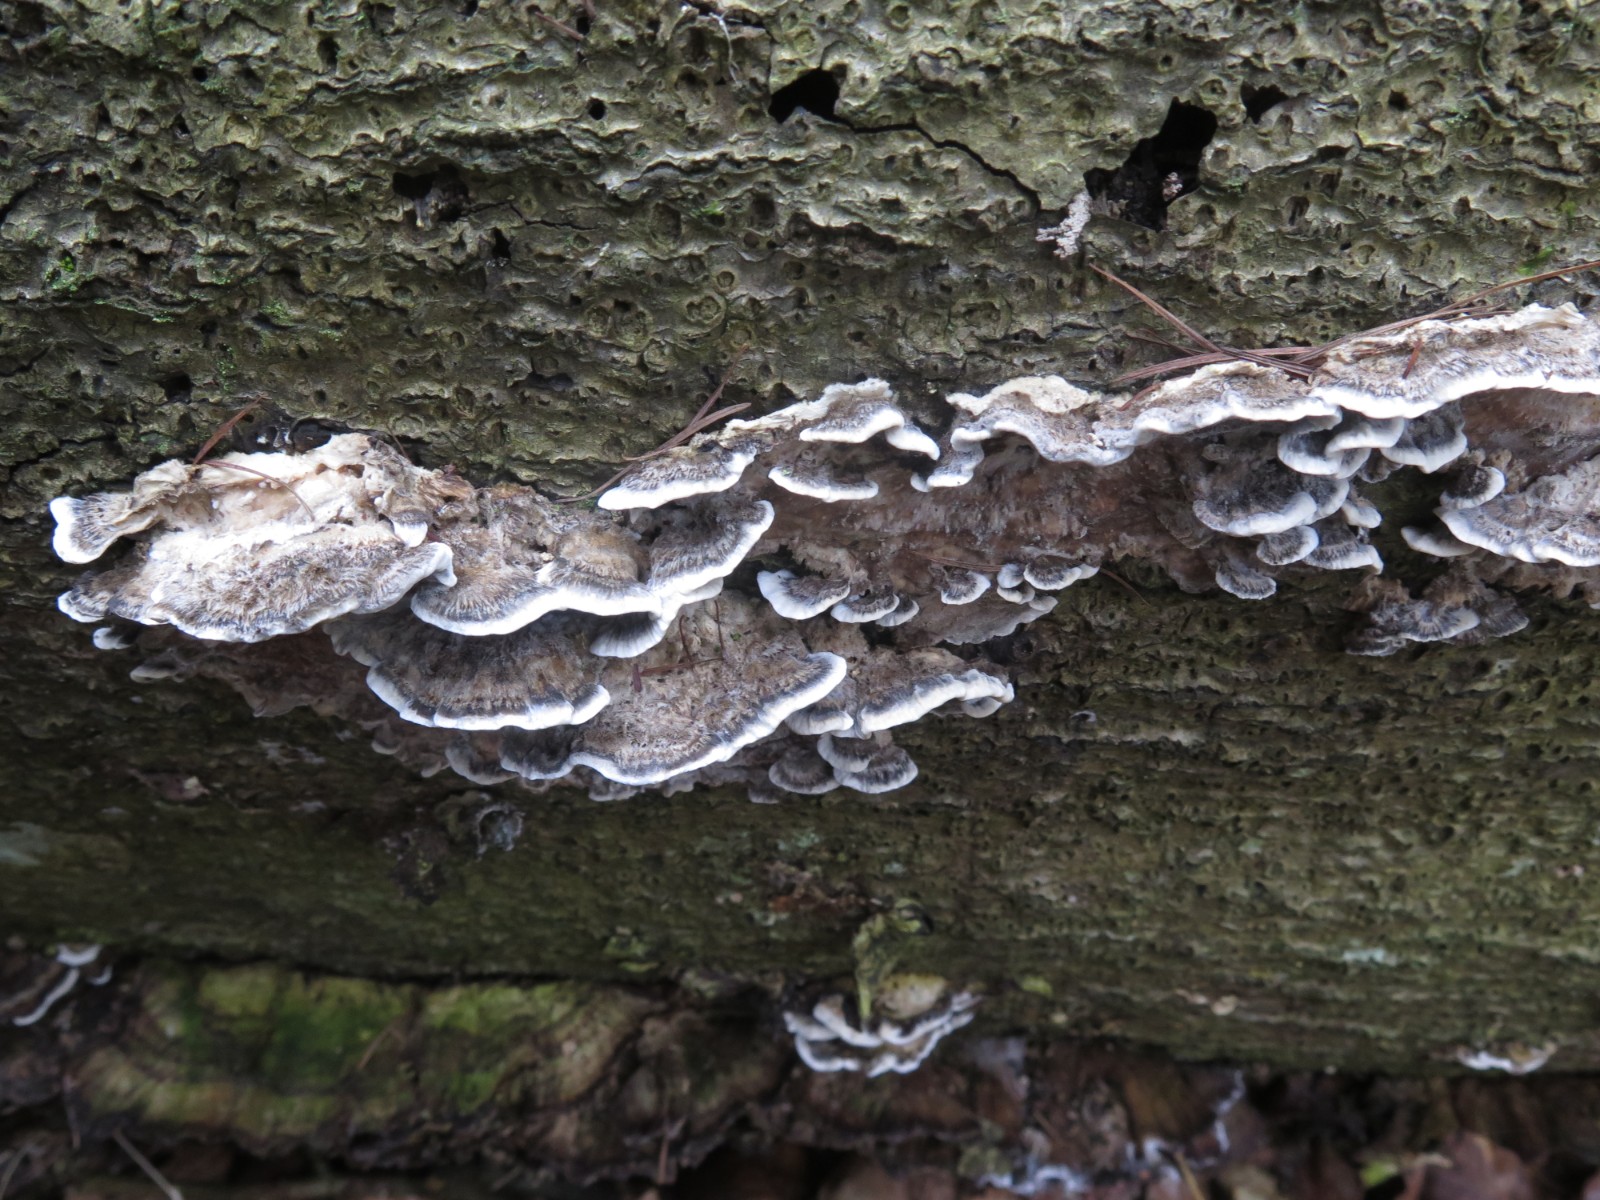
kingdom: Fungi
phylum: Basidiomycota
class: Agaricomycetes
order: Polyporales
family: Phanerochaetaceae
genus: Bjerkandera
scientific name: Bjerkandera adusta
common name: sveden sodporesvamp
